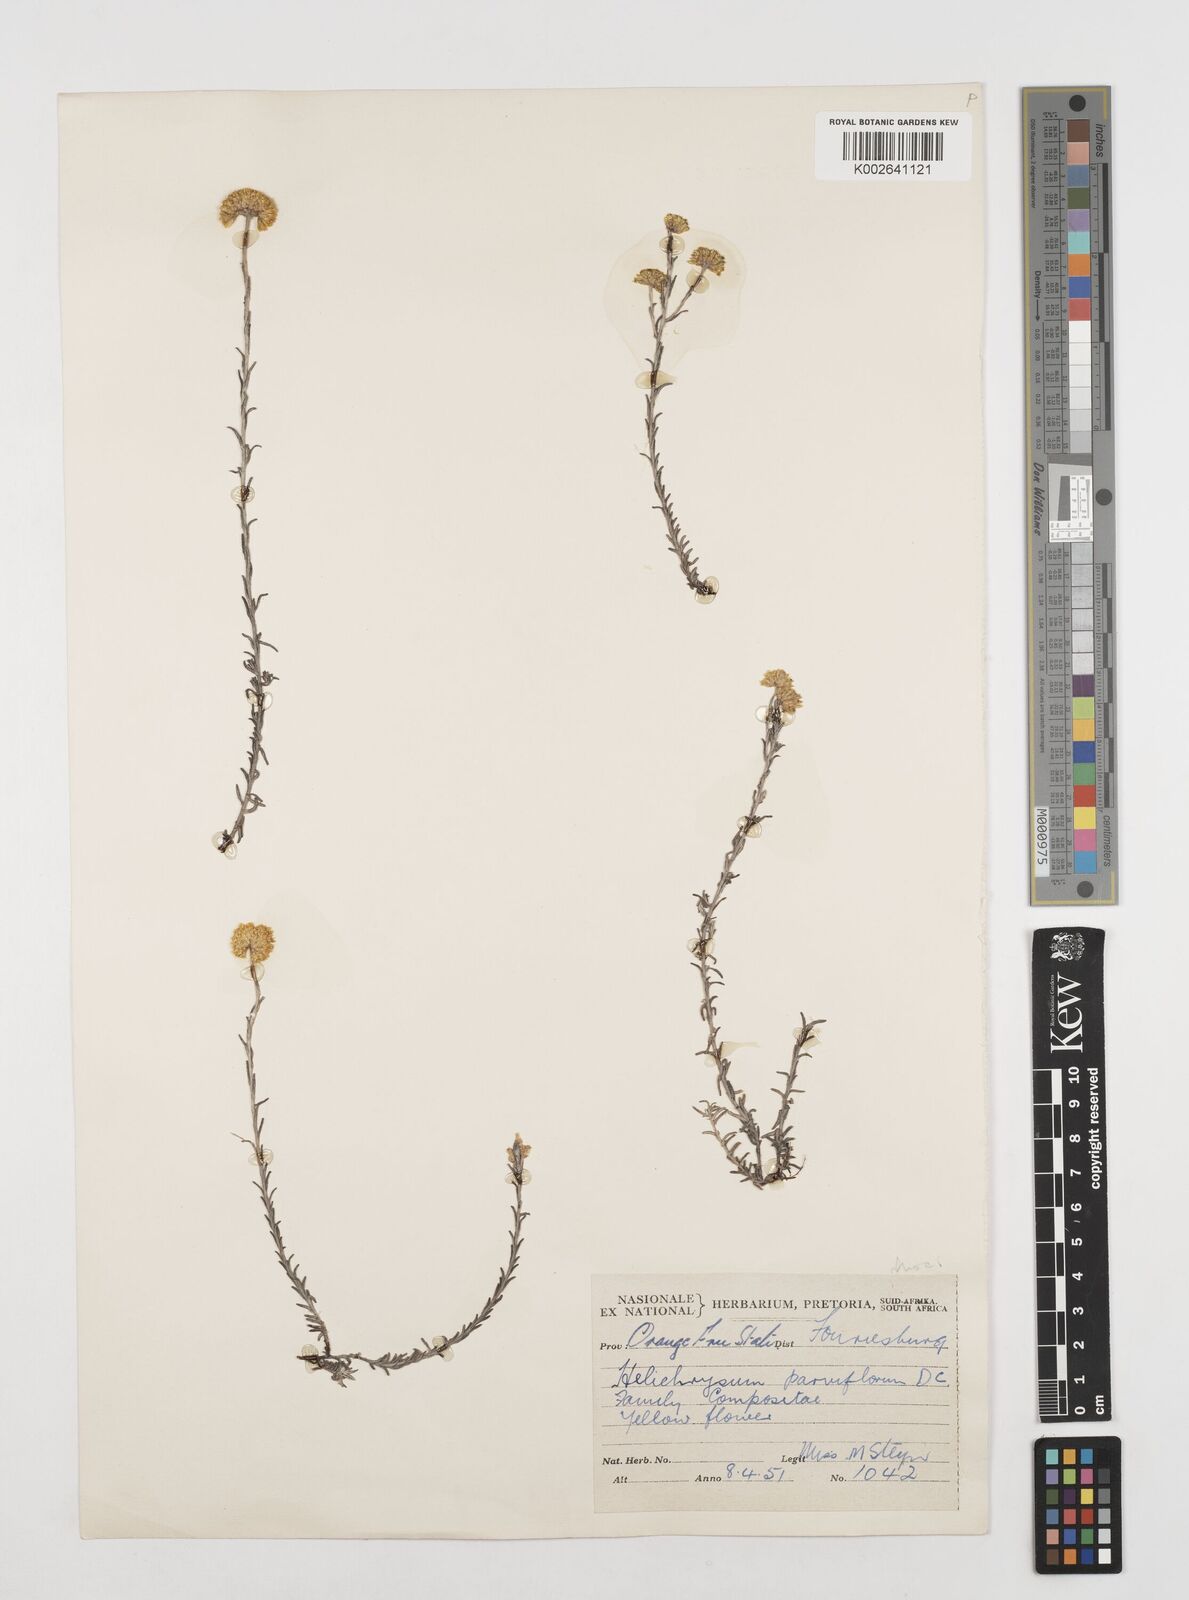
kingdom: Plantae
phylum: Tracheophyta
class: Magnoliopsida
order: Asterales
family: Asteraceae
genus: Helichrysum
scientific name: Helichrysum rutilans
